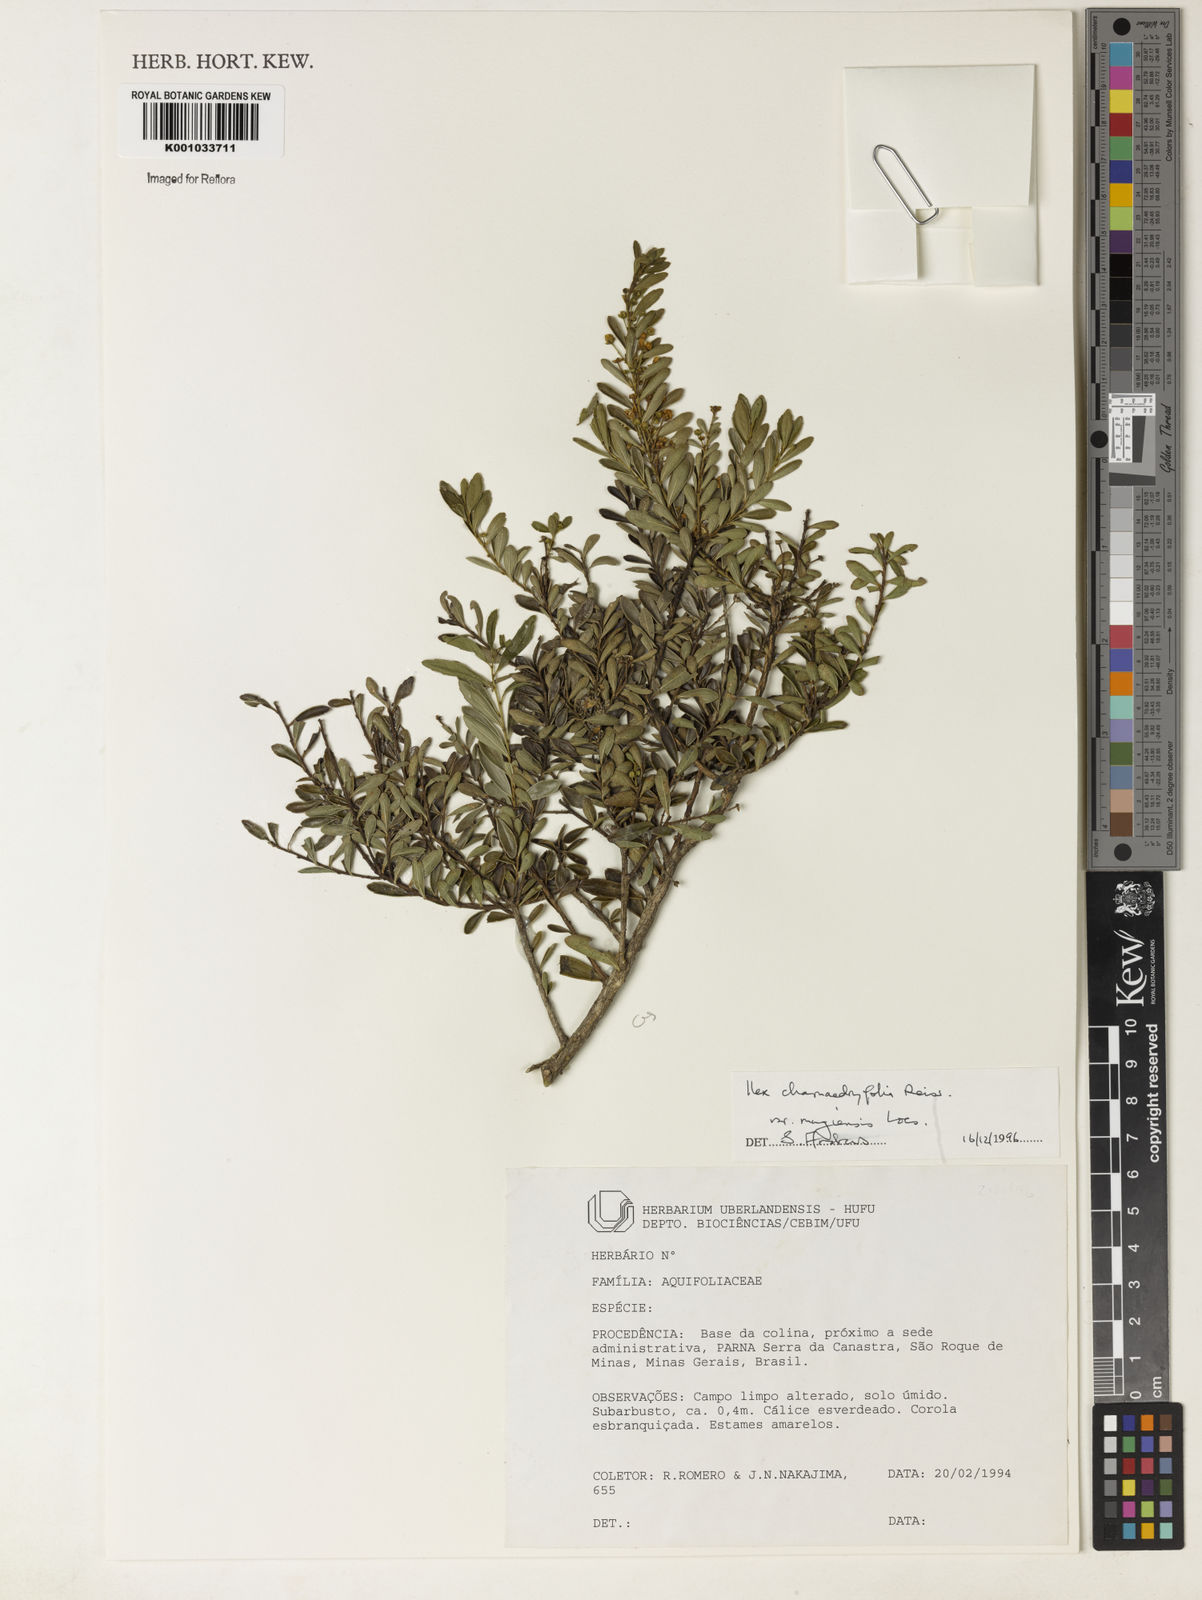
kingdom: Plantae
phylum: Tracheophyta
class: Magnoliopsida
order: Aquifoliales
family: Aquifoliaceae
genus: Ilex
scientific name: Ilex chamaedryfolia
